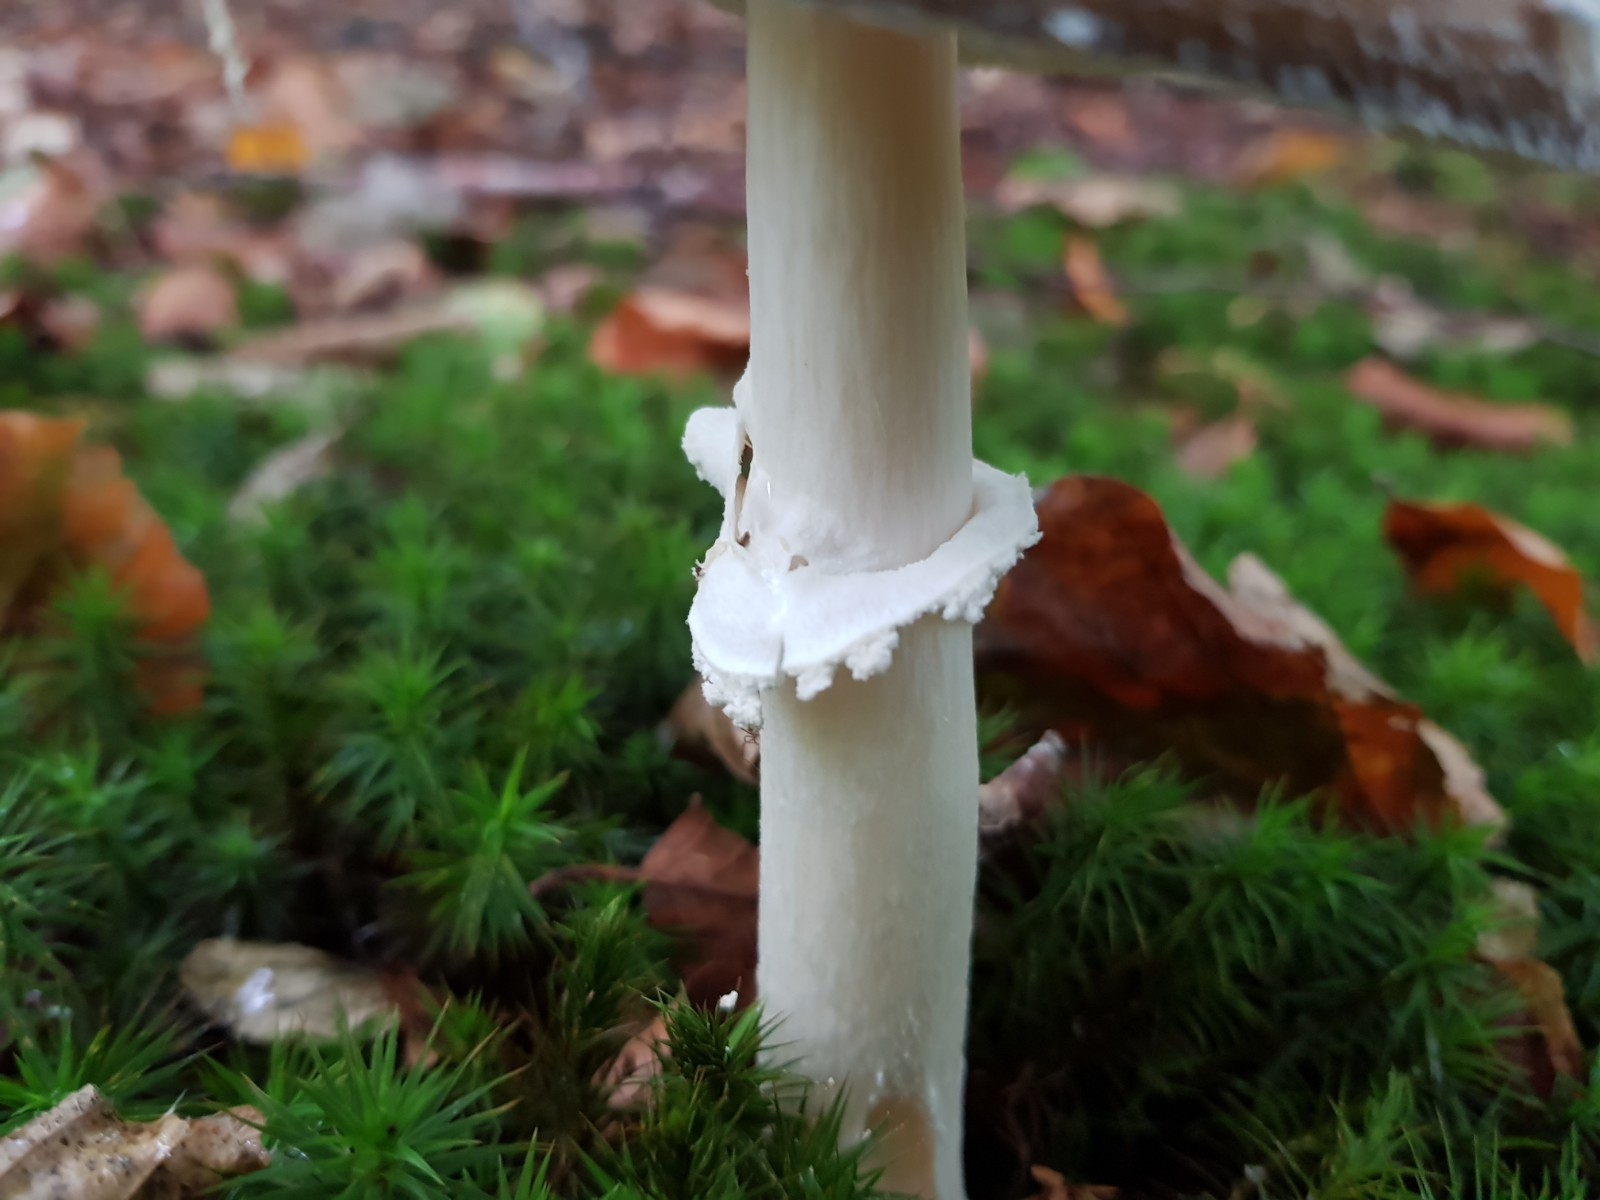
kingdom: Fungi
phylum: Basidiomycota
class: Agaricomycetes
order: Agaricales
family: Amanitaceae
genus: Amanita
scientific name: Amanita pantherina
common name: panter-fluesvamp
